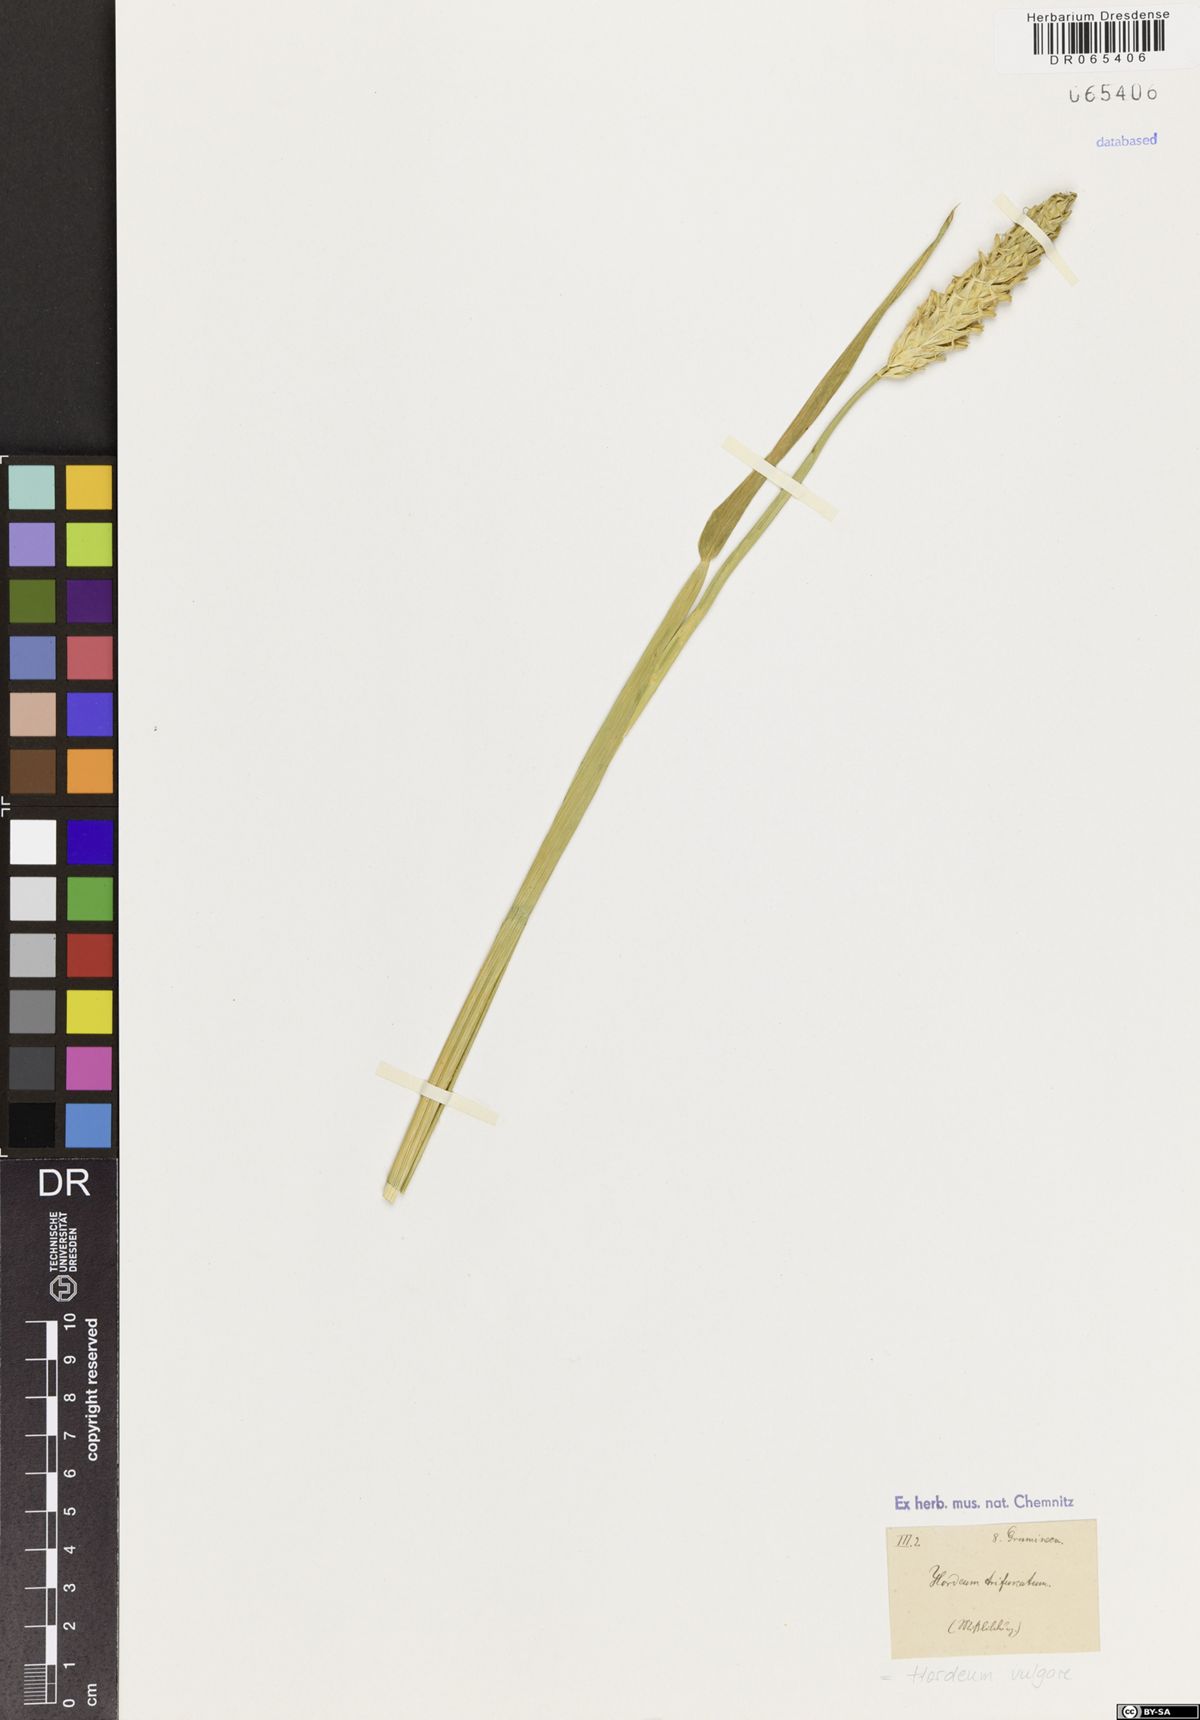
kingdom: Plantae
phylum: Tracheophyta
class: Liliopsida
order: Poales
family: Poaceae
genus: Hordeum
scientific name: Hordeum vulgare
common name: Common barley
